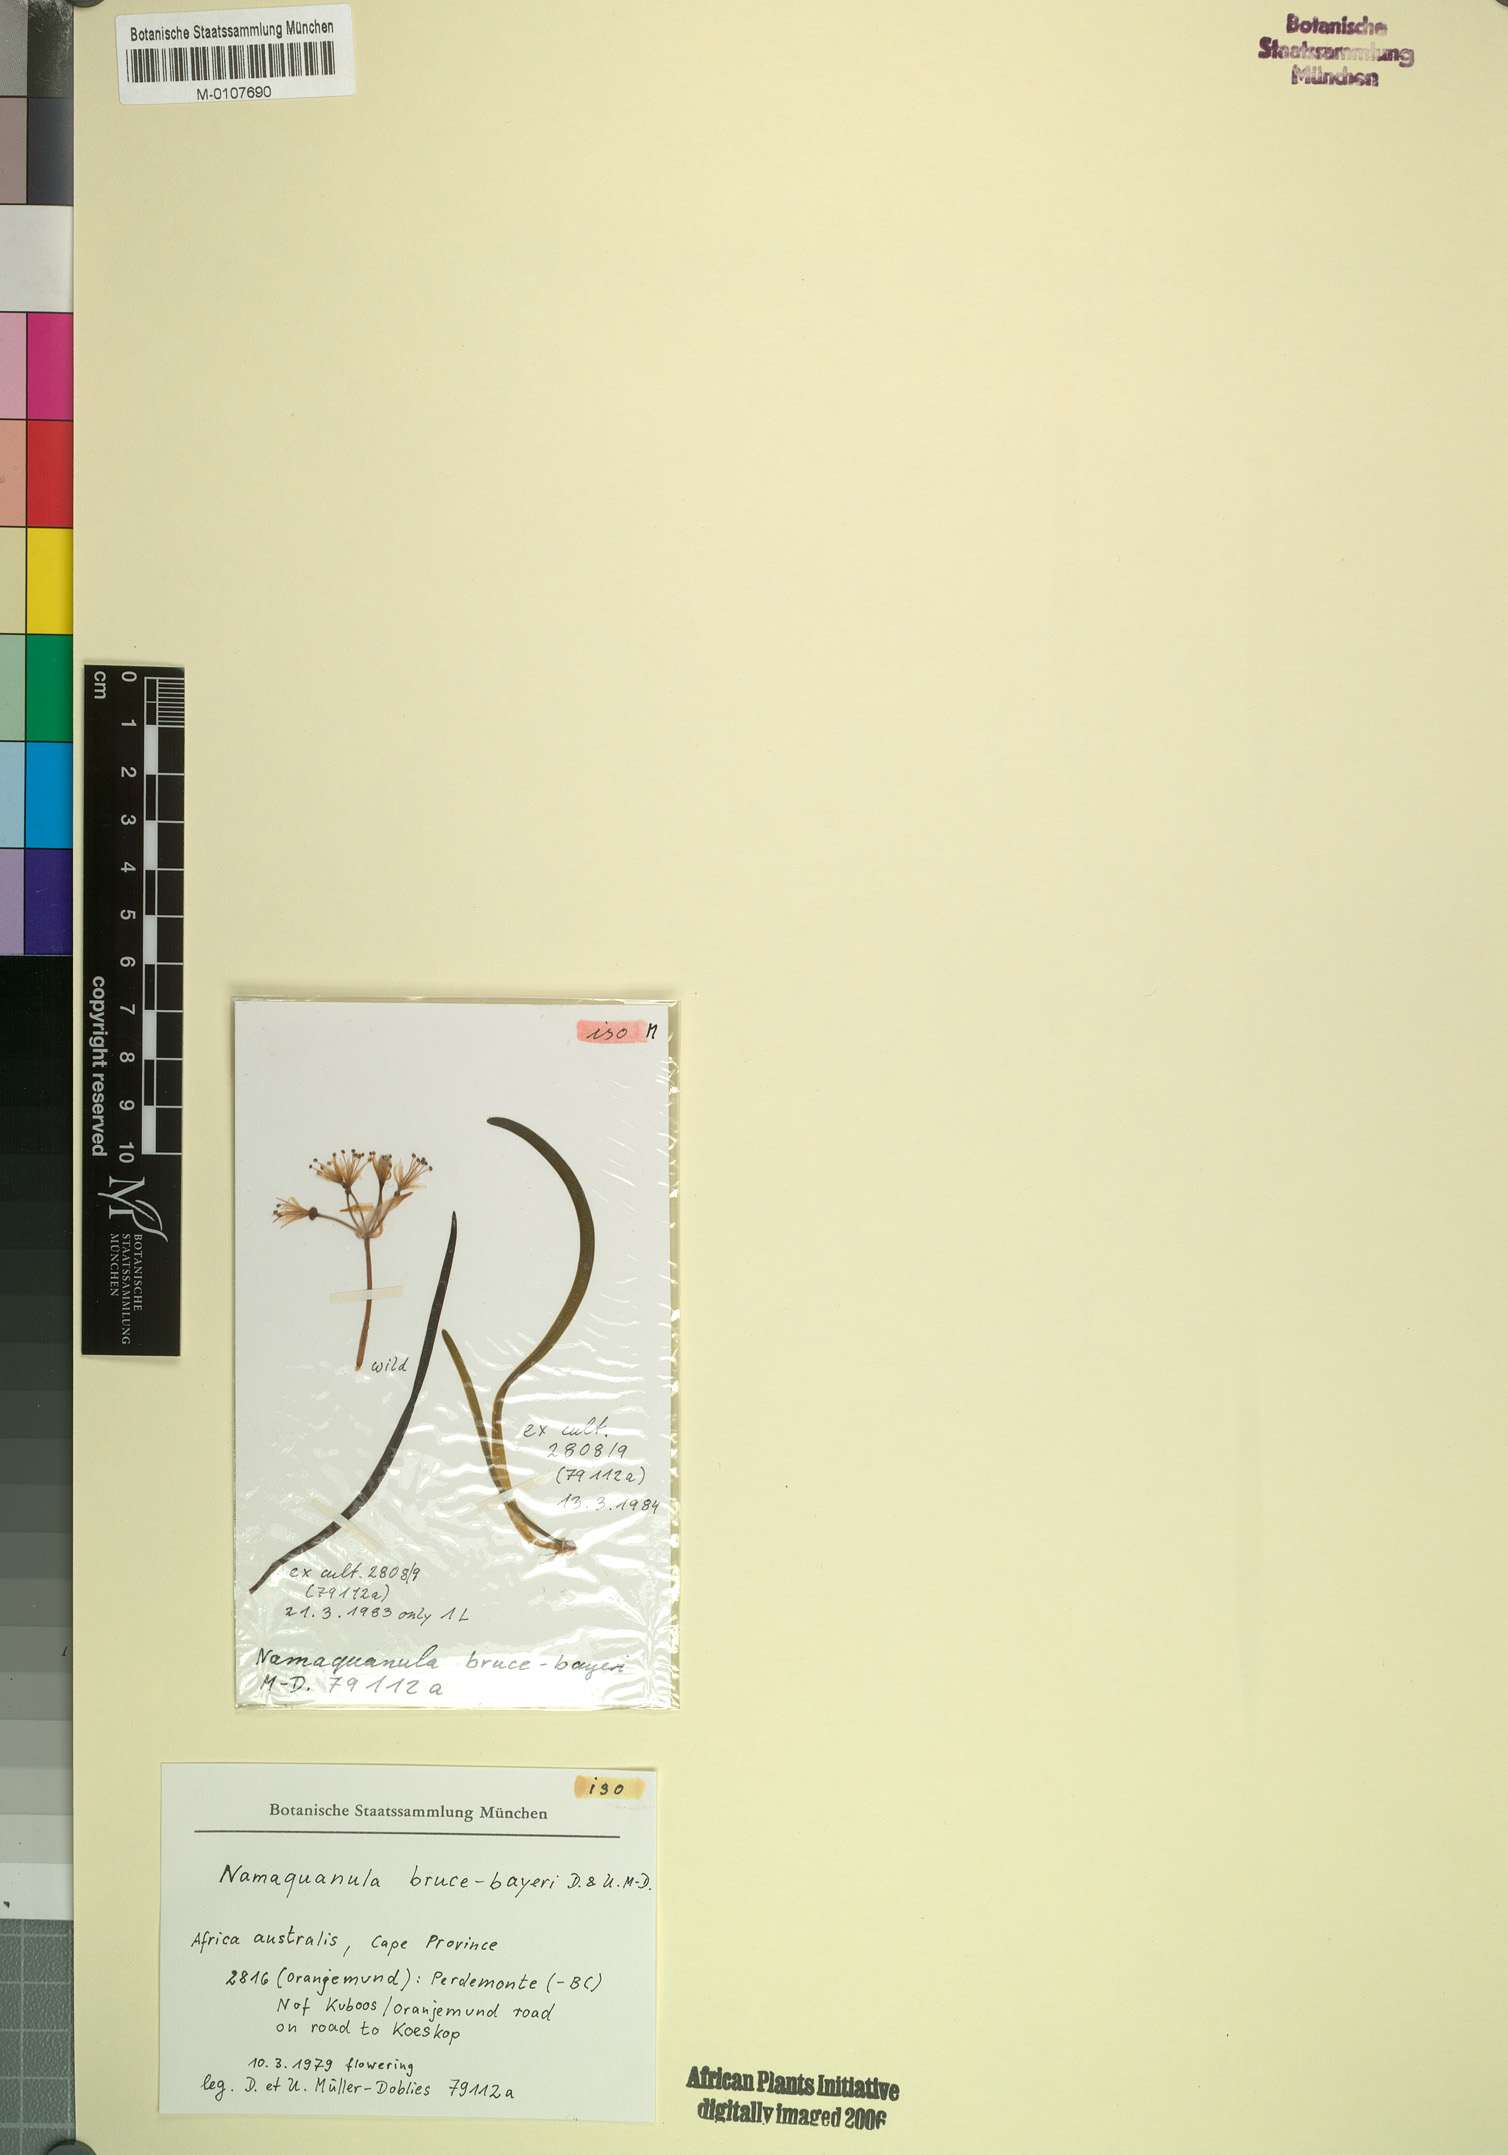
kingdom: Plantae
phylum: Tracheophyta
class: Liliopsida
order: Asparagales
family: Amaryllidaceae
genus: Namaquanula
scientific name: Namaquanula bruce-bayeri
